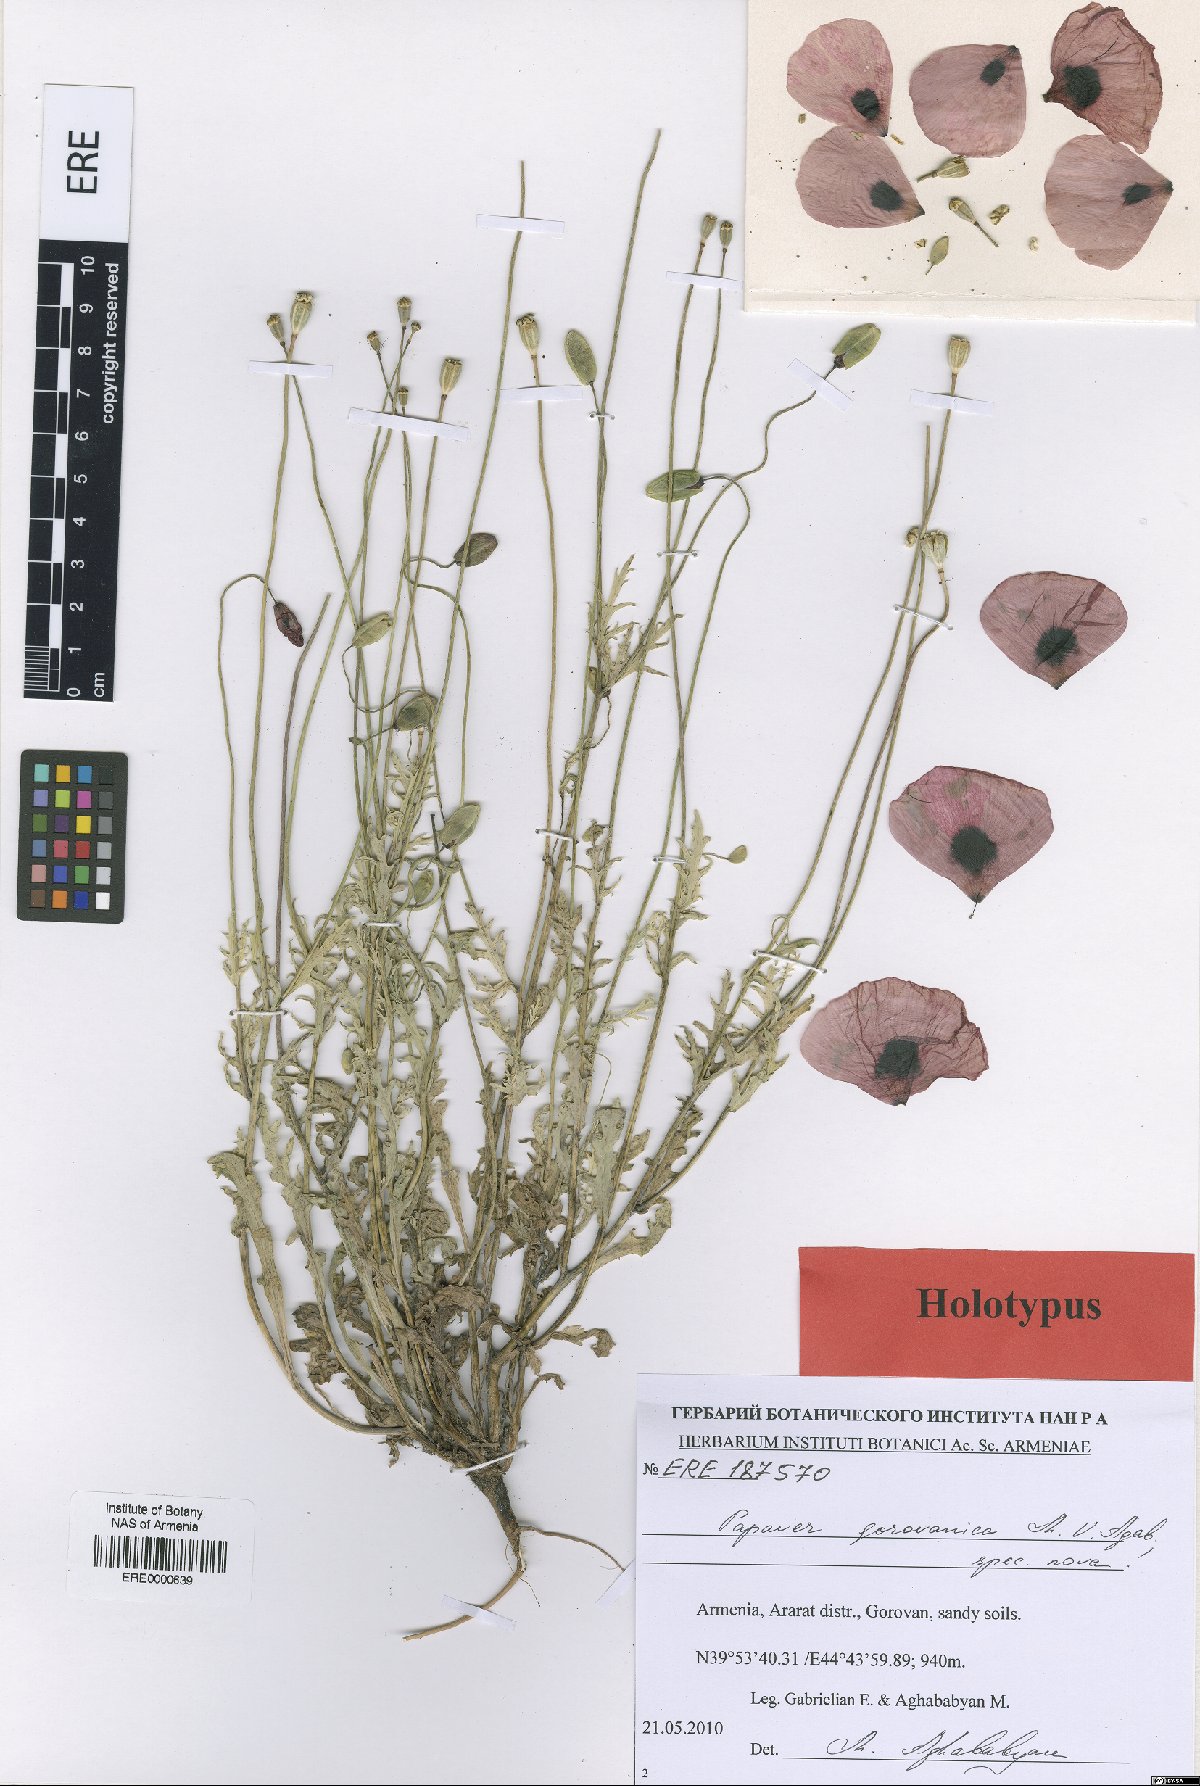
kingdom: Plantae
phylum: Tracheophyta
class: Magnoliopsida
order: Ranunculales
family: Papaveraceae
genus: Papaver
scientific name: Papaver gorovanicum
